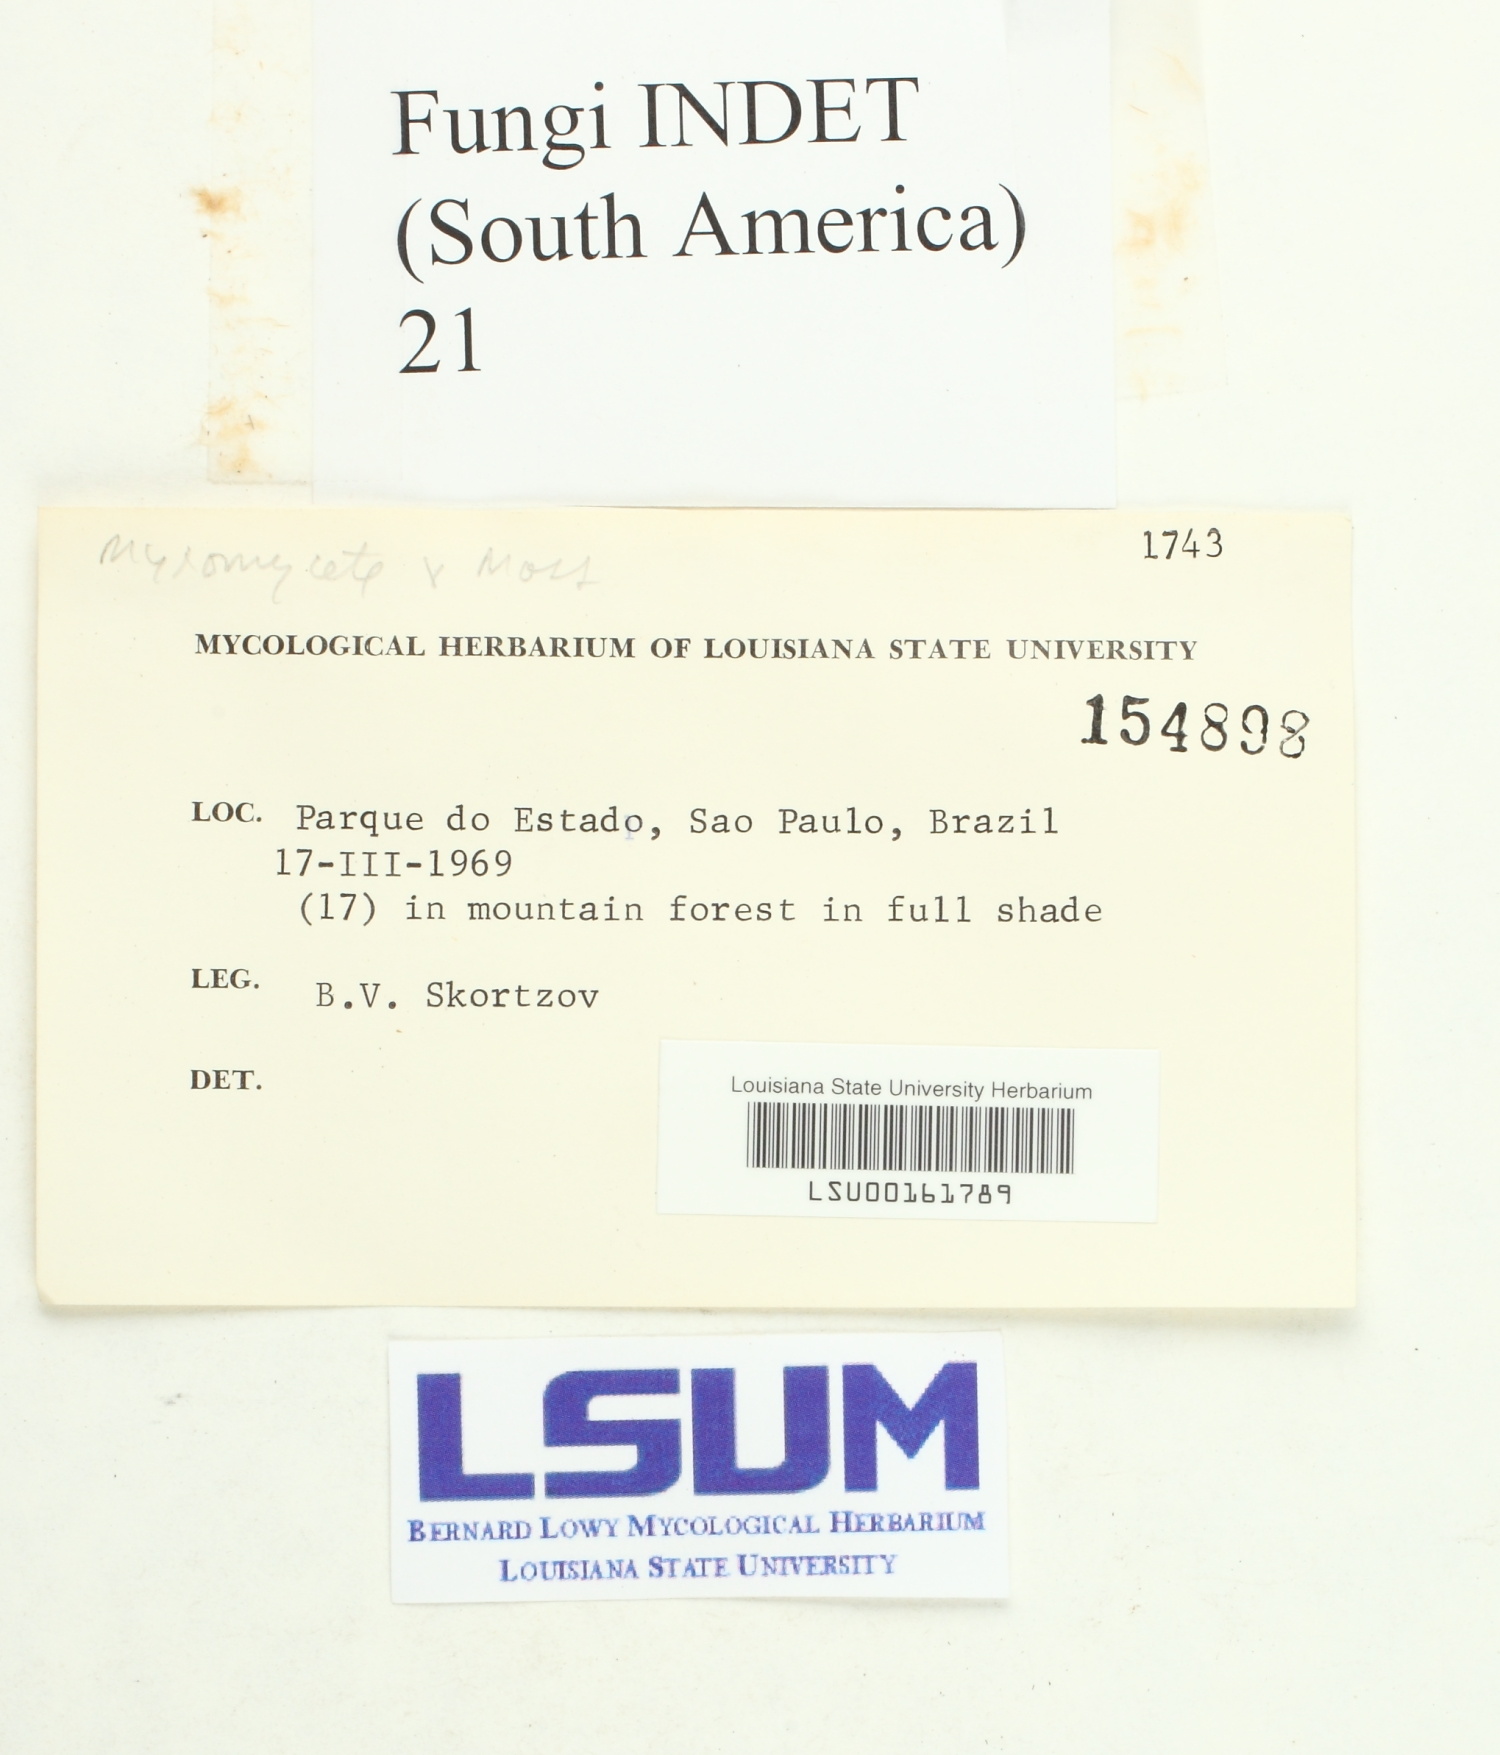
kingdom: Fungi
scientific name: Fungi
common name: Fungi
